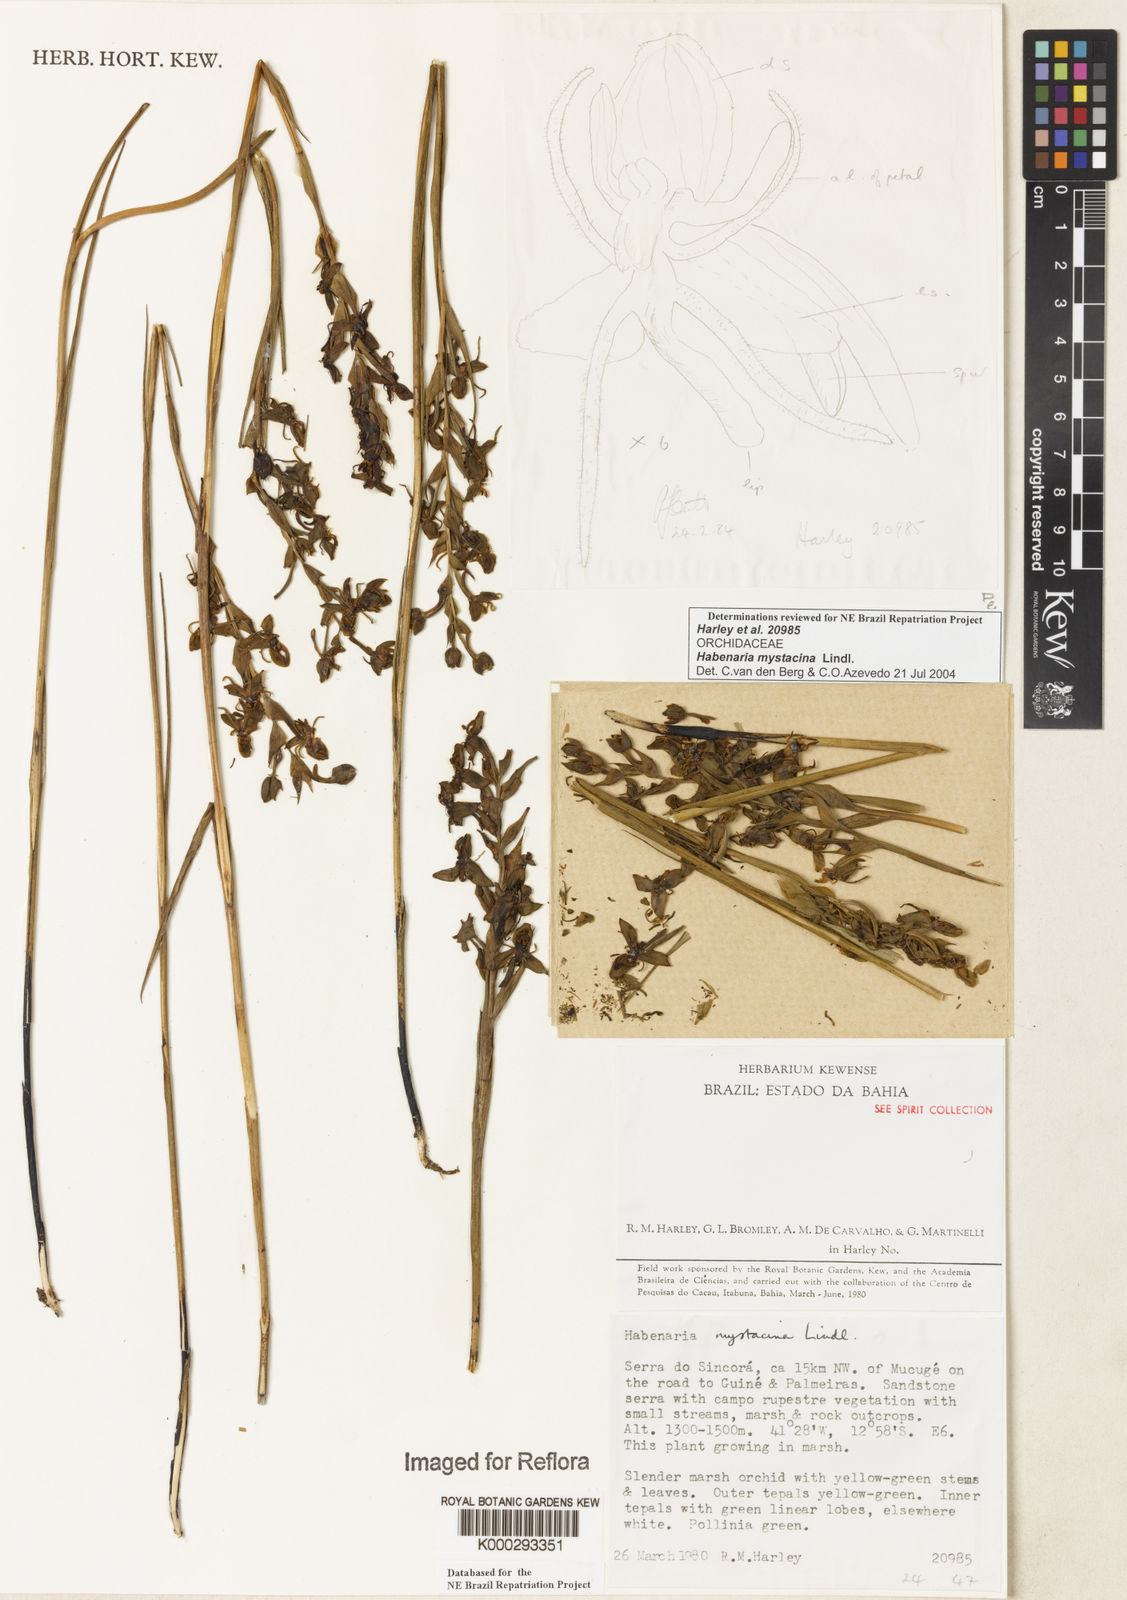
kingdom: Plantae
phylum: Tracheophyta
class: Liliopsida
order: Asparagales
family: Orchidaceae
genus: Habenaria
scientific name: Habenaria mystacina
